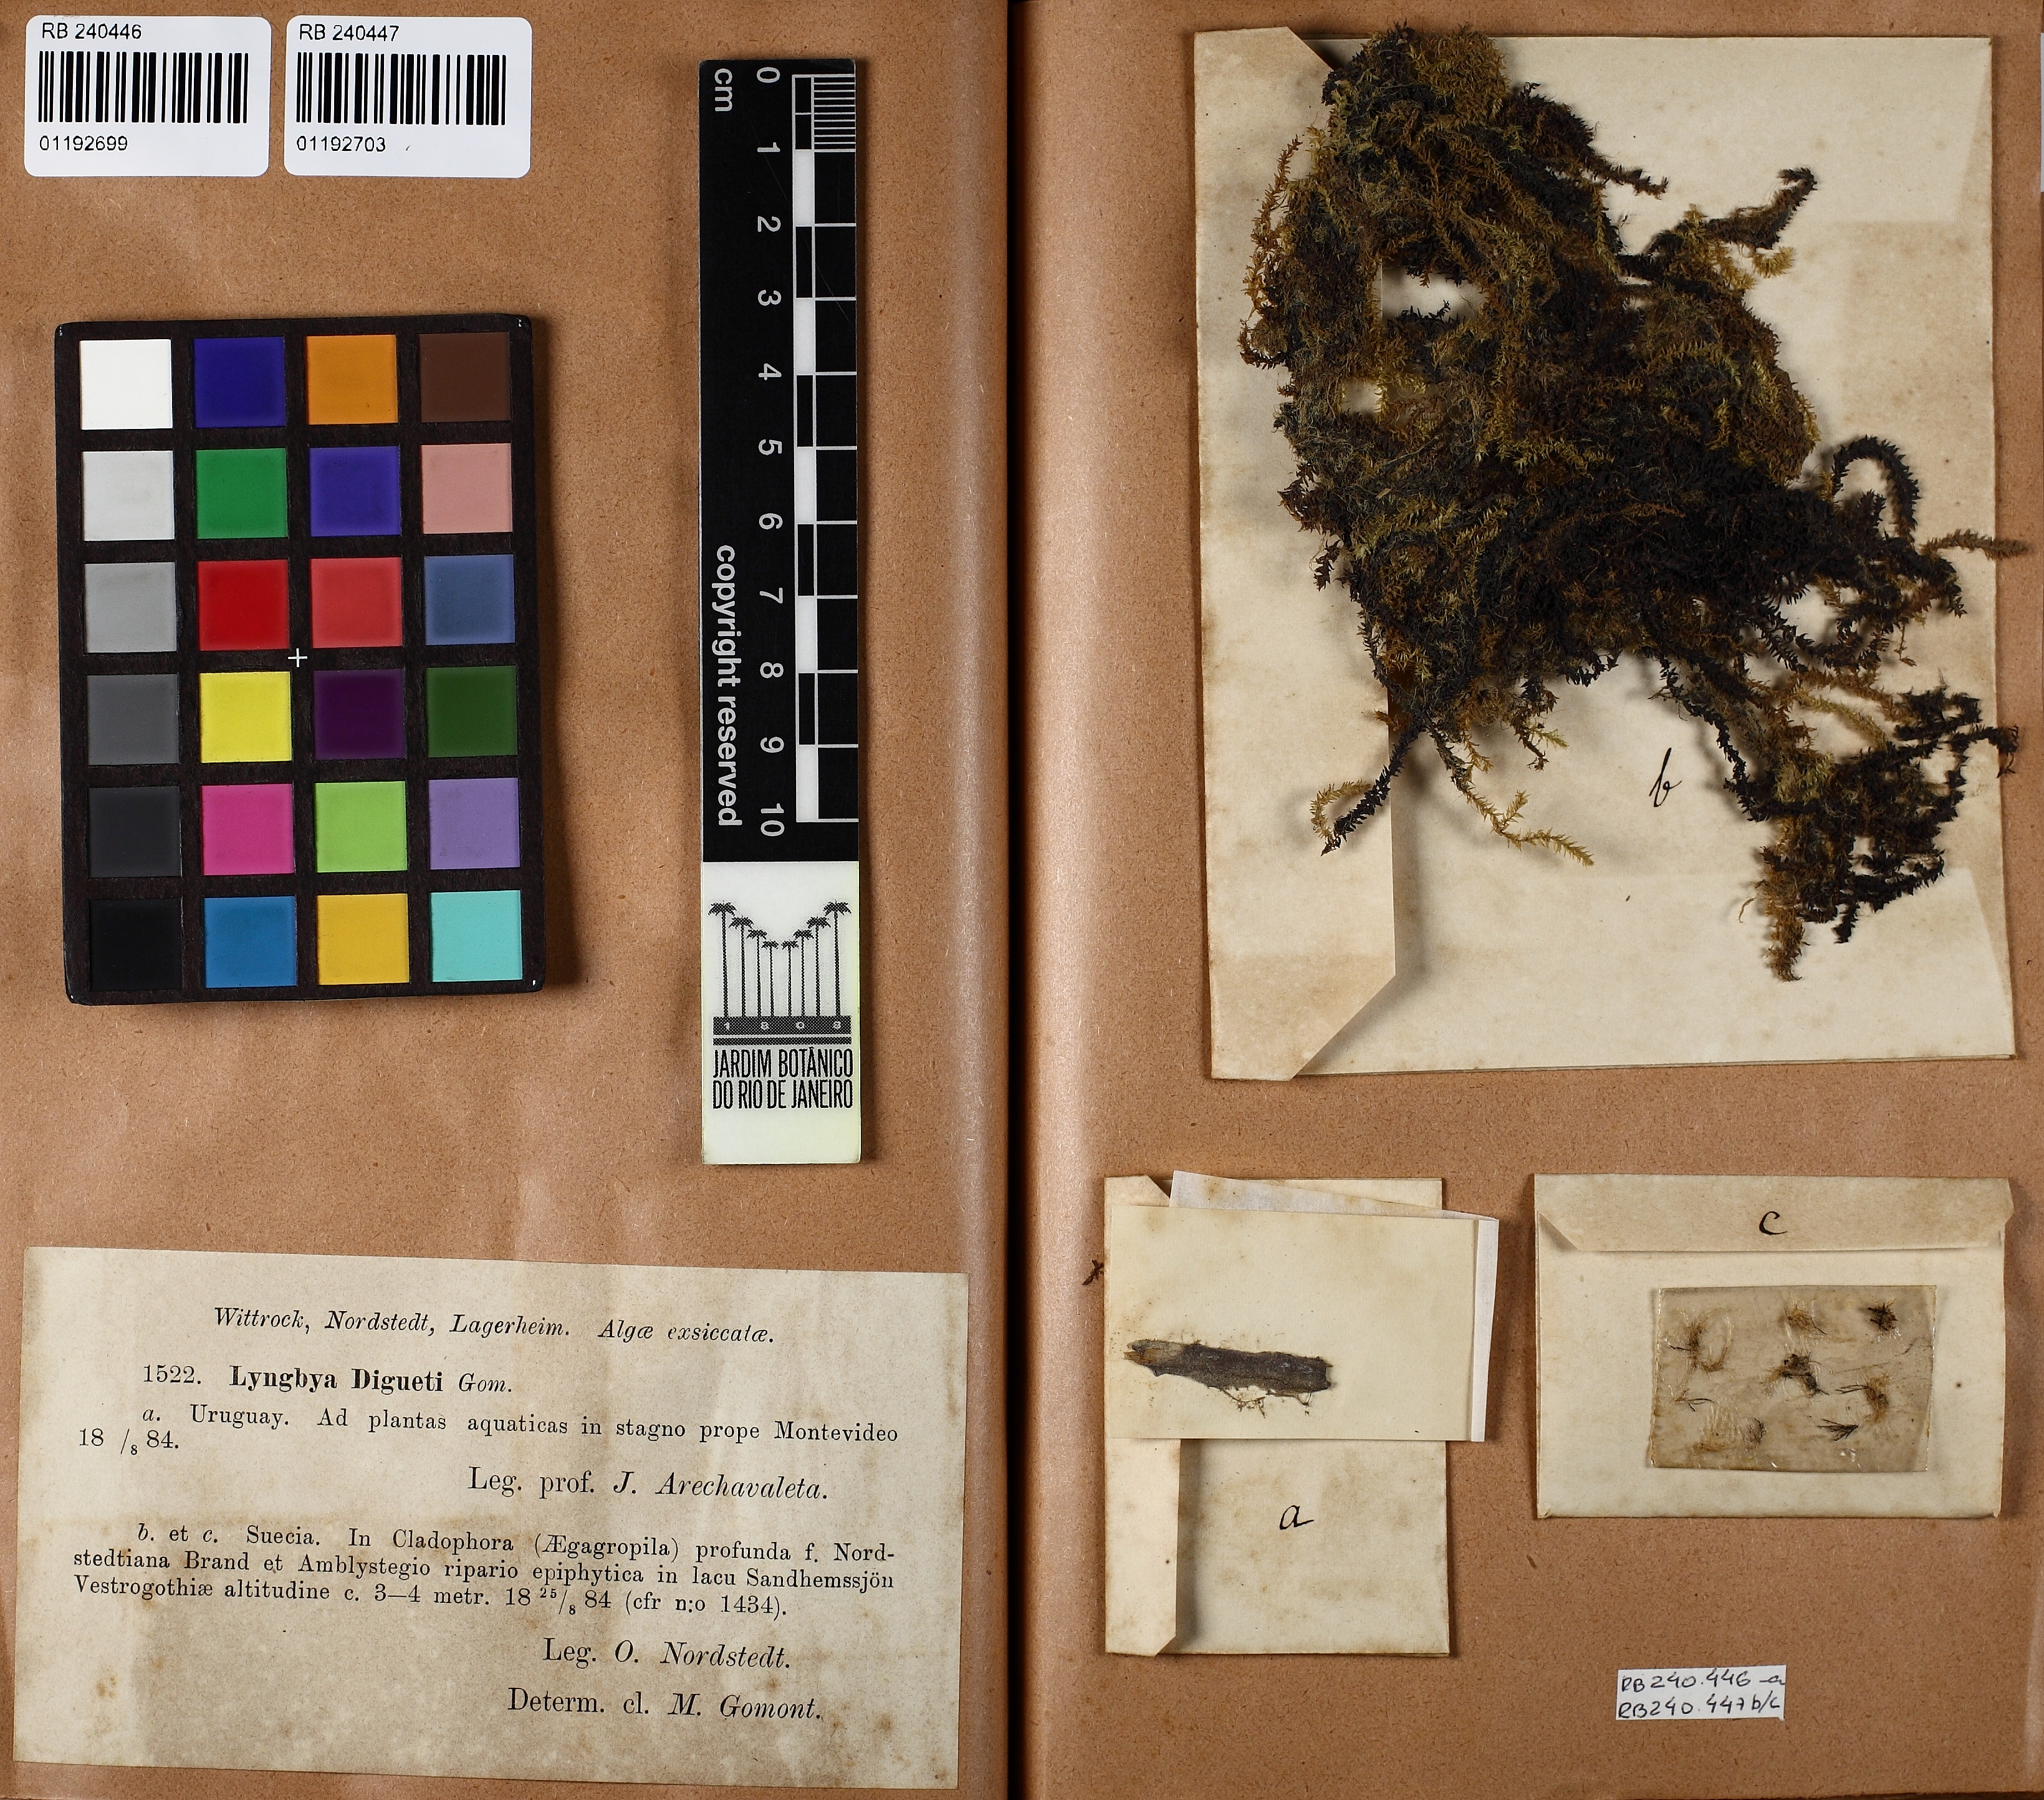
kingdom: Bacteria
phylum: Cyanobacteria
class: Cyanobacteriia
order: Cyanobacteriales
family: Oscillatoriaceae
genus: Phormidium
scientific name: Phormidium diguetii
